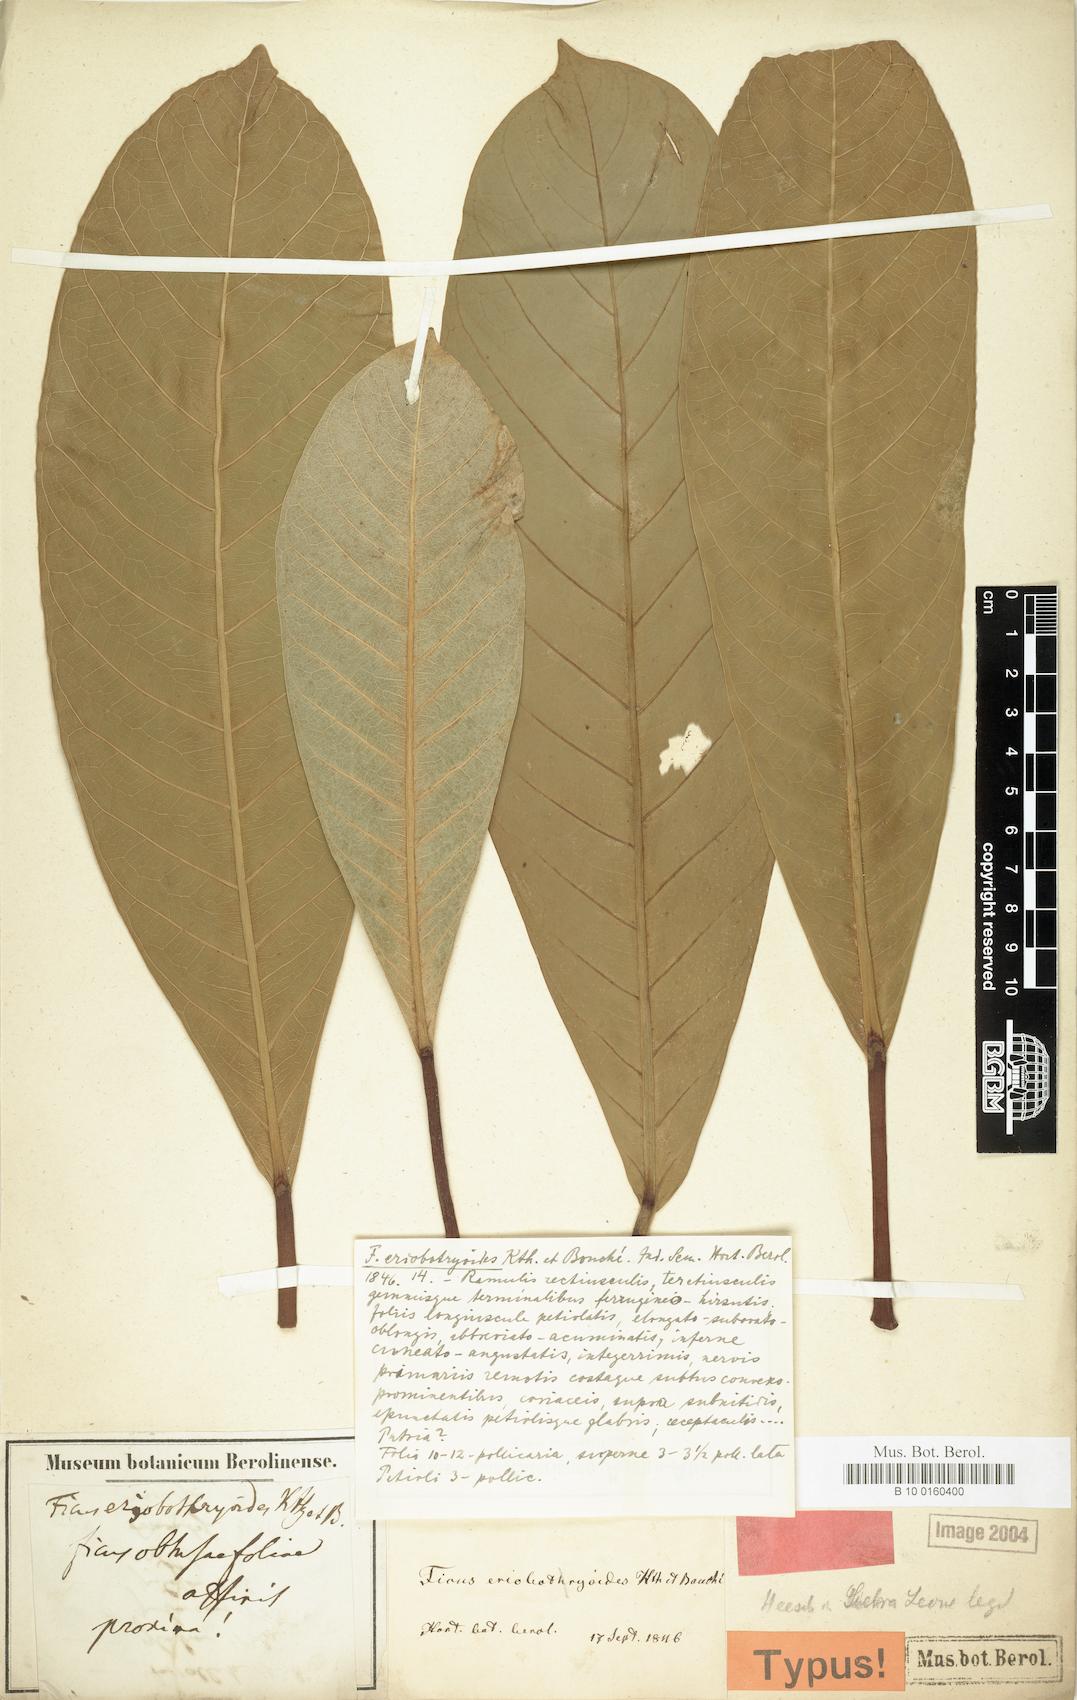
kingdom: Plantae
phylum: Tracheophyta
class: Magnoliopsida
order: Rosales
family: Moraceae
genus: Ficus
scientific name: Ficus
